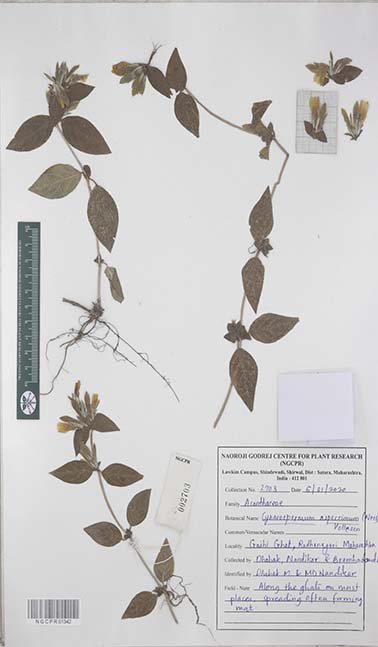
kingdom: Plantae
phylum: Tracheophyta
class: Magnoliopsida
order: Lamiales
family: Acanthaceae
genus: Cynarospermum
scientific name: Cynarospermum asperrimum
